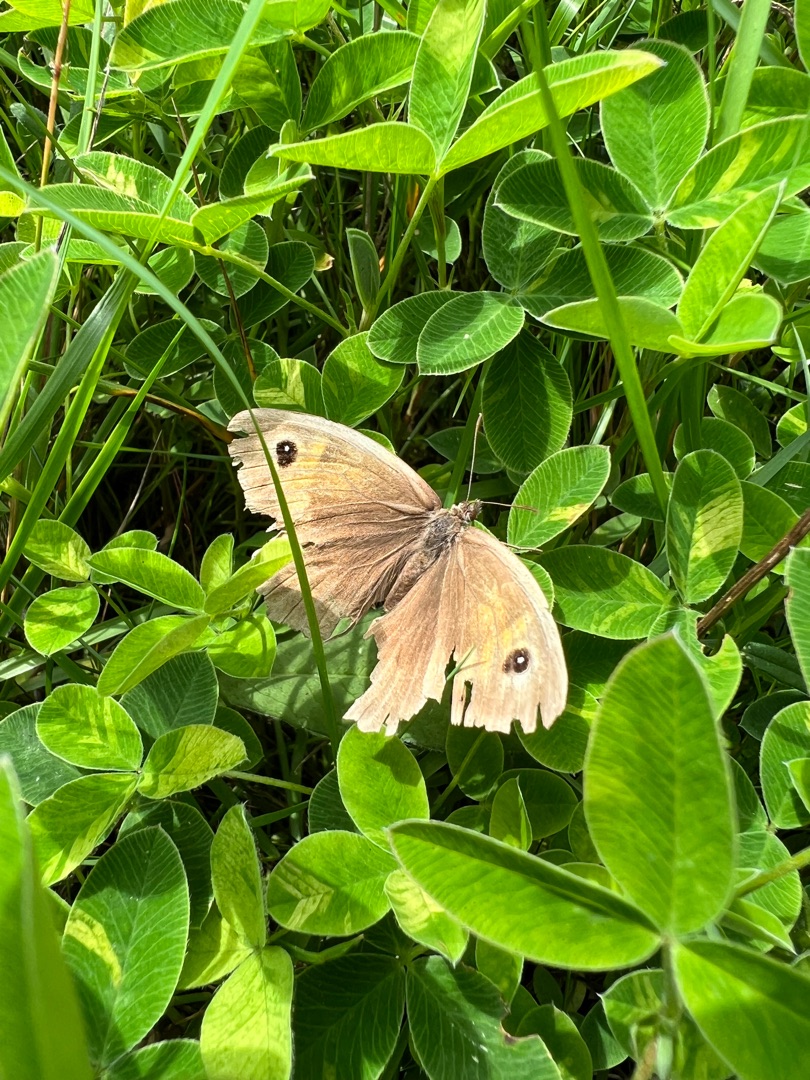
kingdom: Animalia
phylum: Arthropoda
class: Insecta
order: Lepidoptera
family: Nymphalidae
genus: Maniola
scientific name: Maniola jurtina
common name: Græsrandøje
